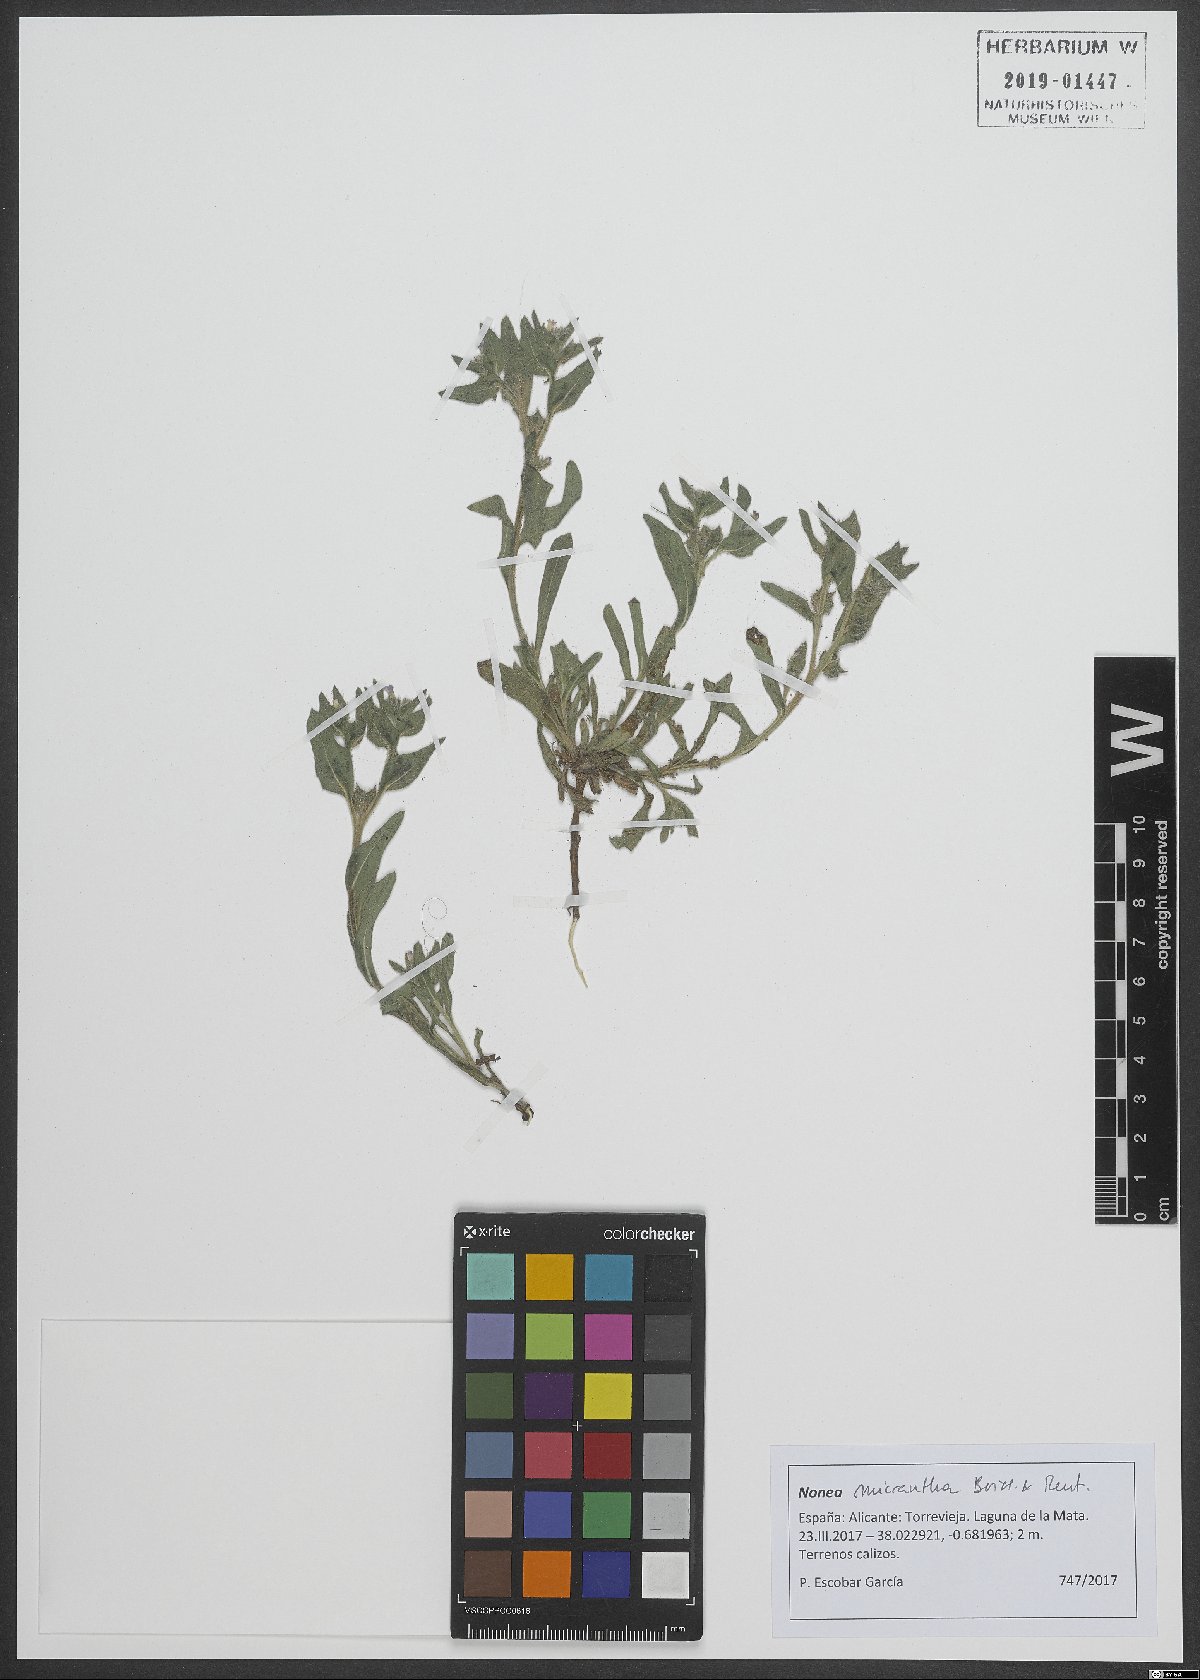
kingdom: Plantae
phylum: Tracheophyta
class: Magnoliopsida
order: Boraginales
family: Boraginaceae
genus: Nonea
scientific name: Nonea micrantha
